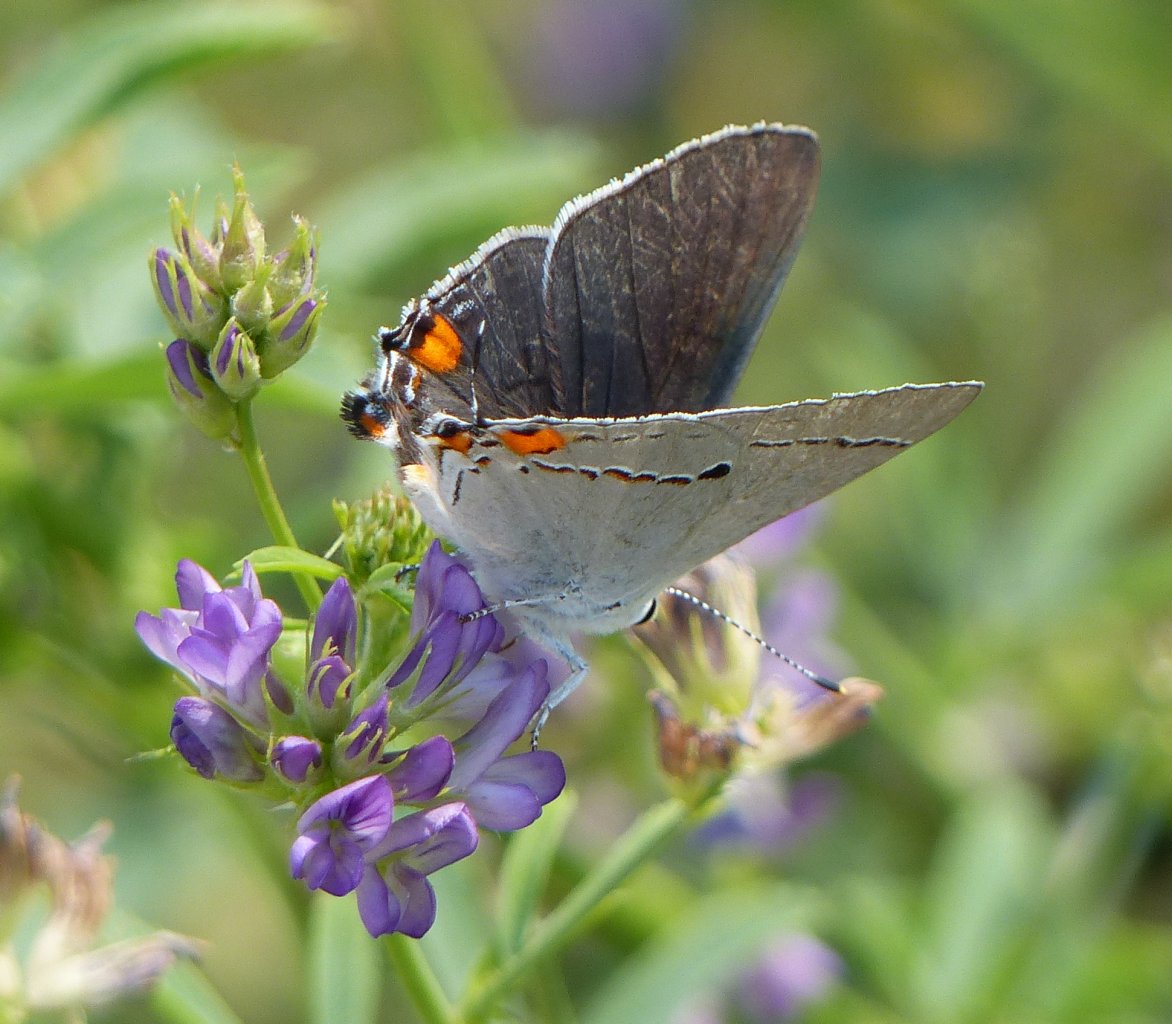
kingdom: Animalia
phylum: Arthropoda
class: Insecta
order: Lepidoptera
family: Lycaenidae
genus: Strymon
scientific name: Strymon melinus
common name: Gray Hairstreak
